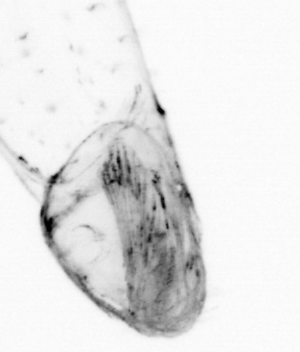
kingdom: Animalia
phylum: Chaetognatha
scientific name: Chaetognatha
